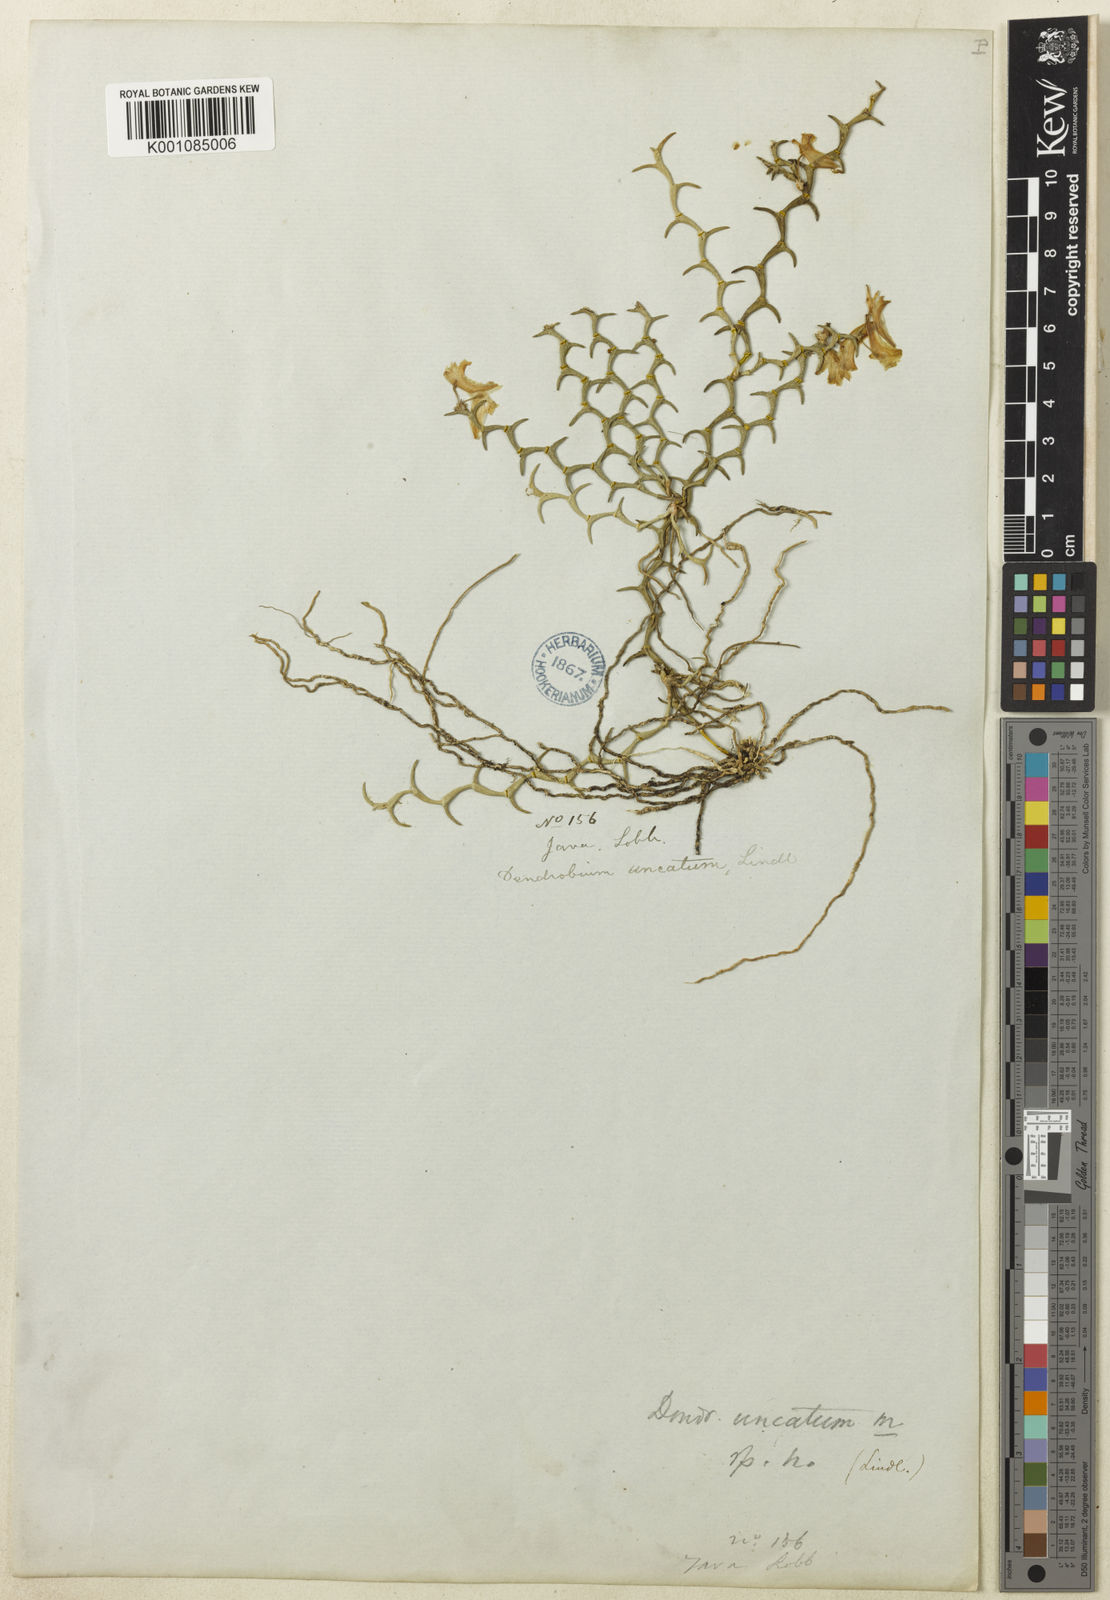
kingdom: Plantae
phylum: Tracheophyta
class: Liliopsida
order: Asparagales
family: Orchidaceae
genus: Dendrobium
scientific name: Dendrobium uncatum
